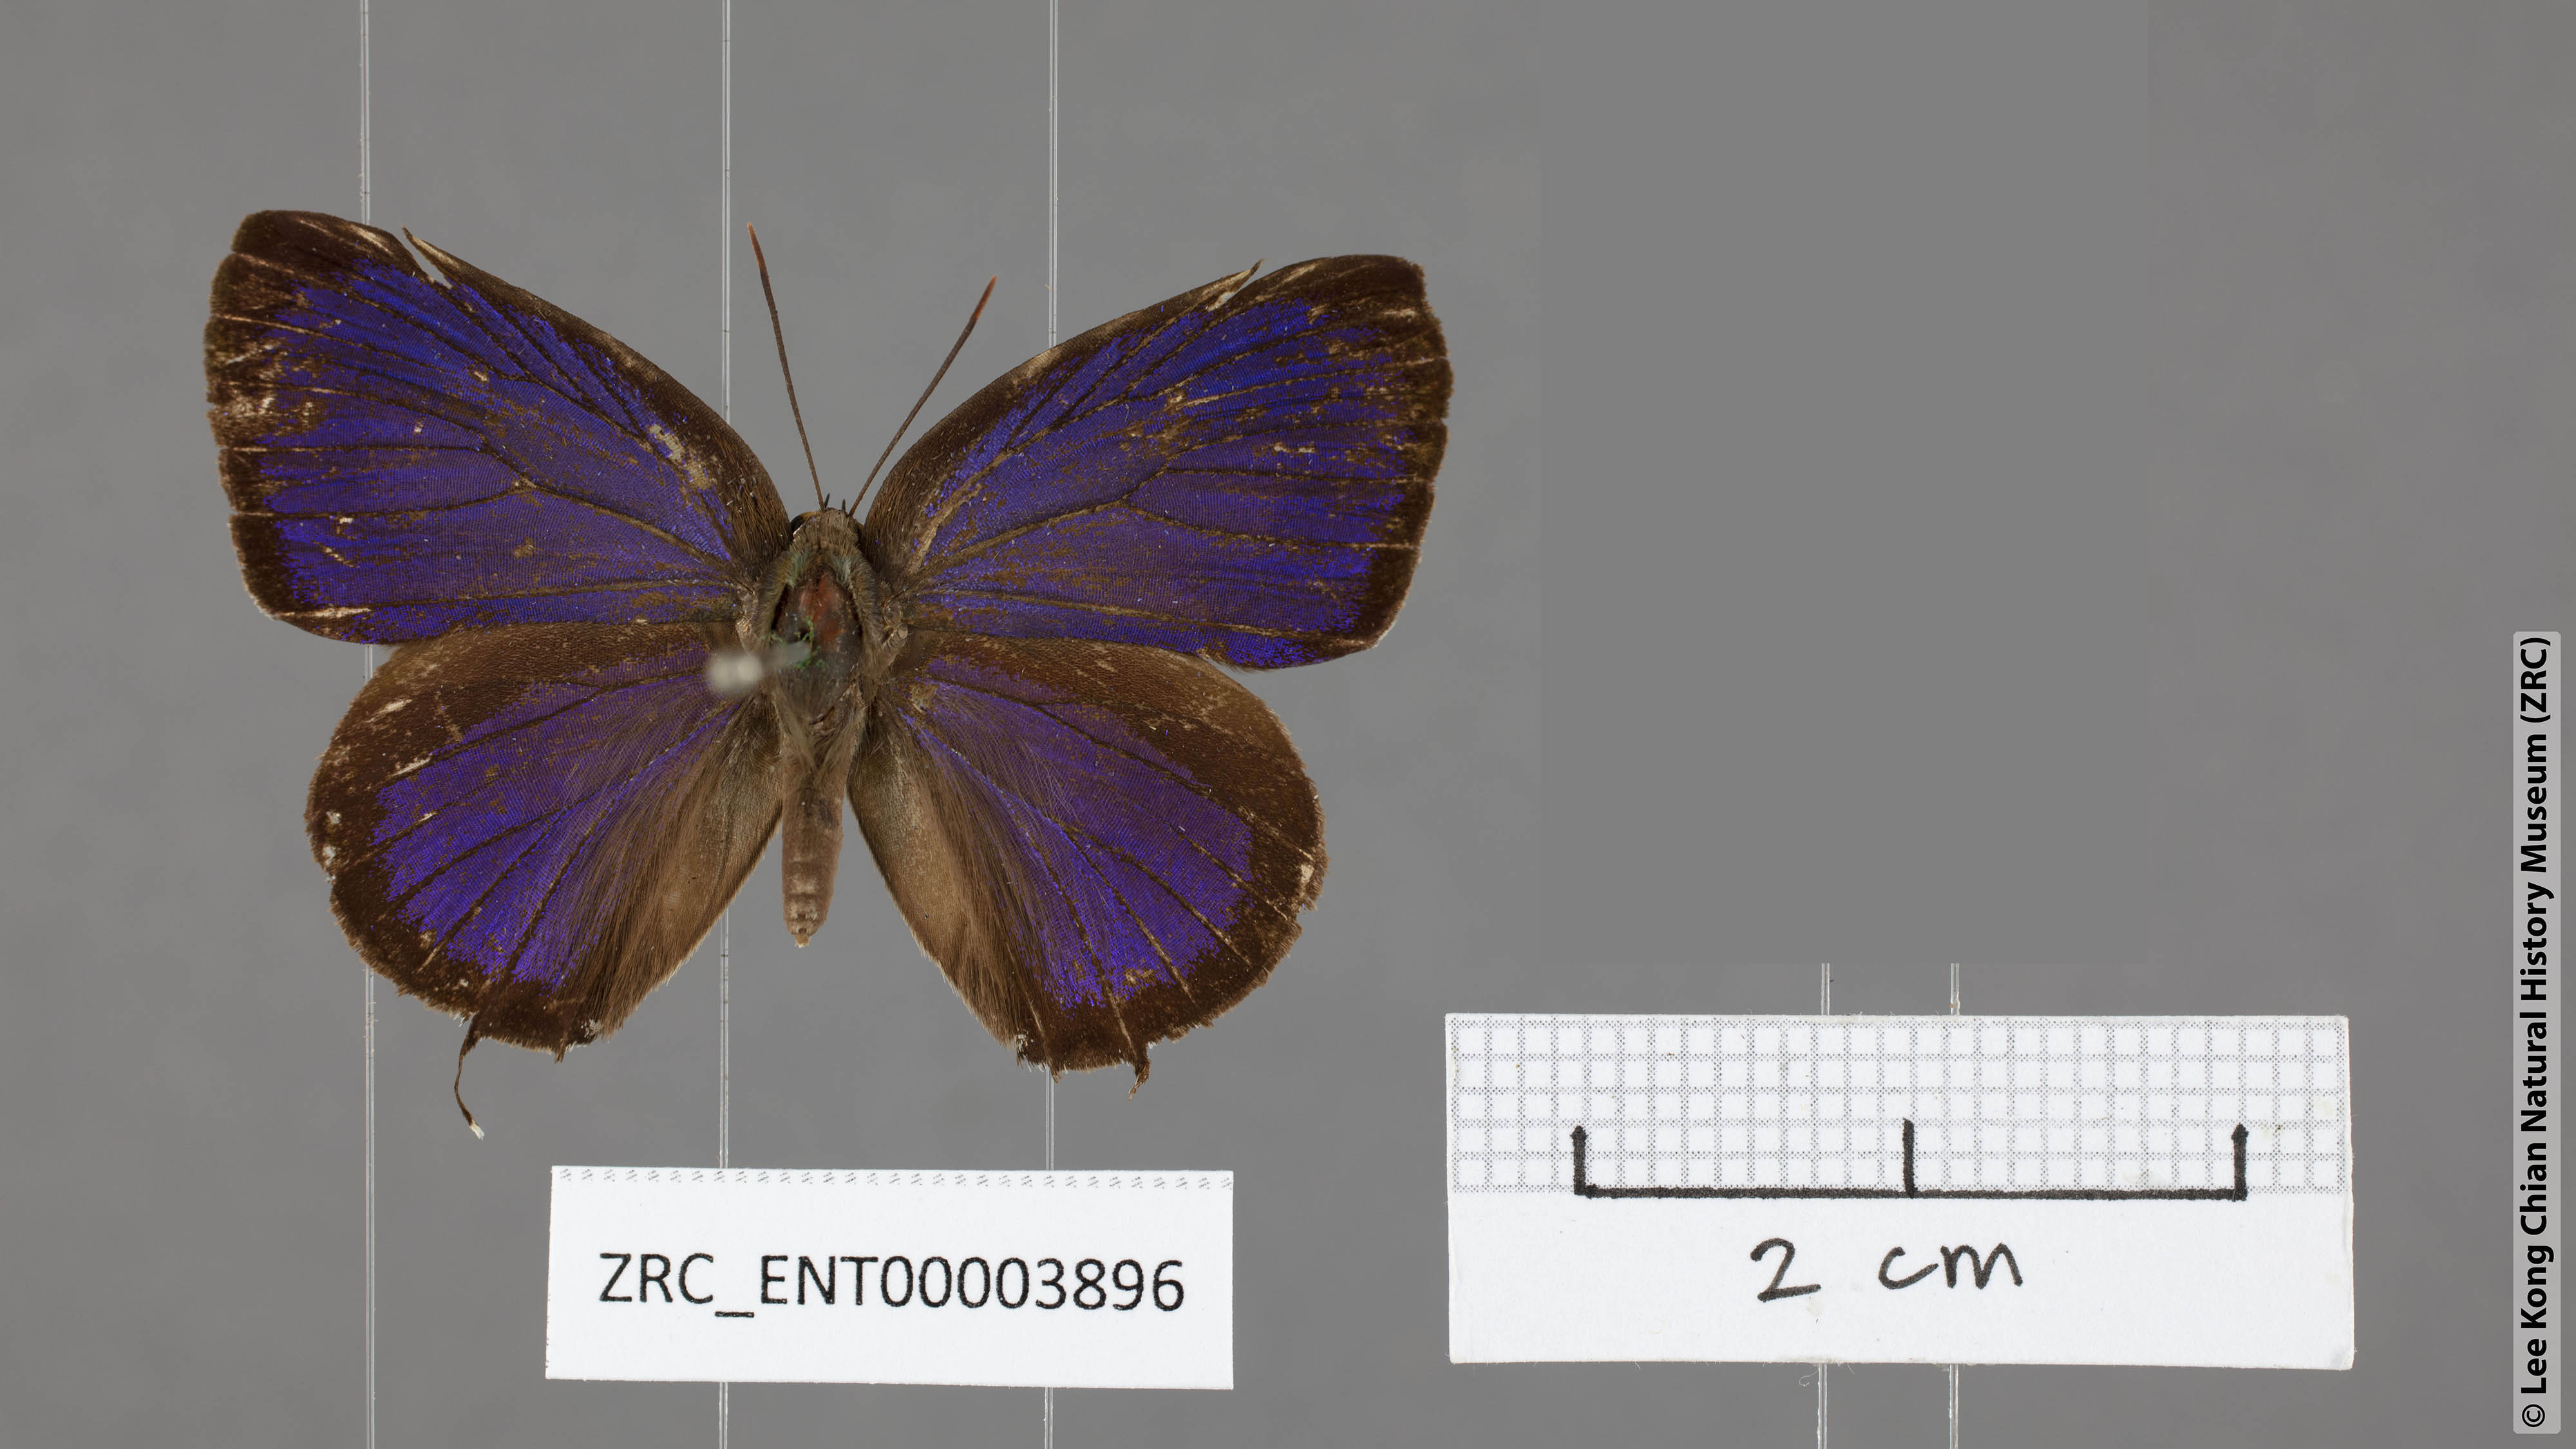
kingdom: Animalia
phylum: Arthropoda
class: Insecta
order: Lepidoptera
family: Lycaenidae
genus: Arhopala
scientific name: Arhopala cleander
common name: Large mergui oakblue
